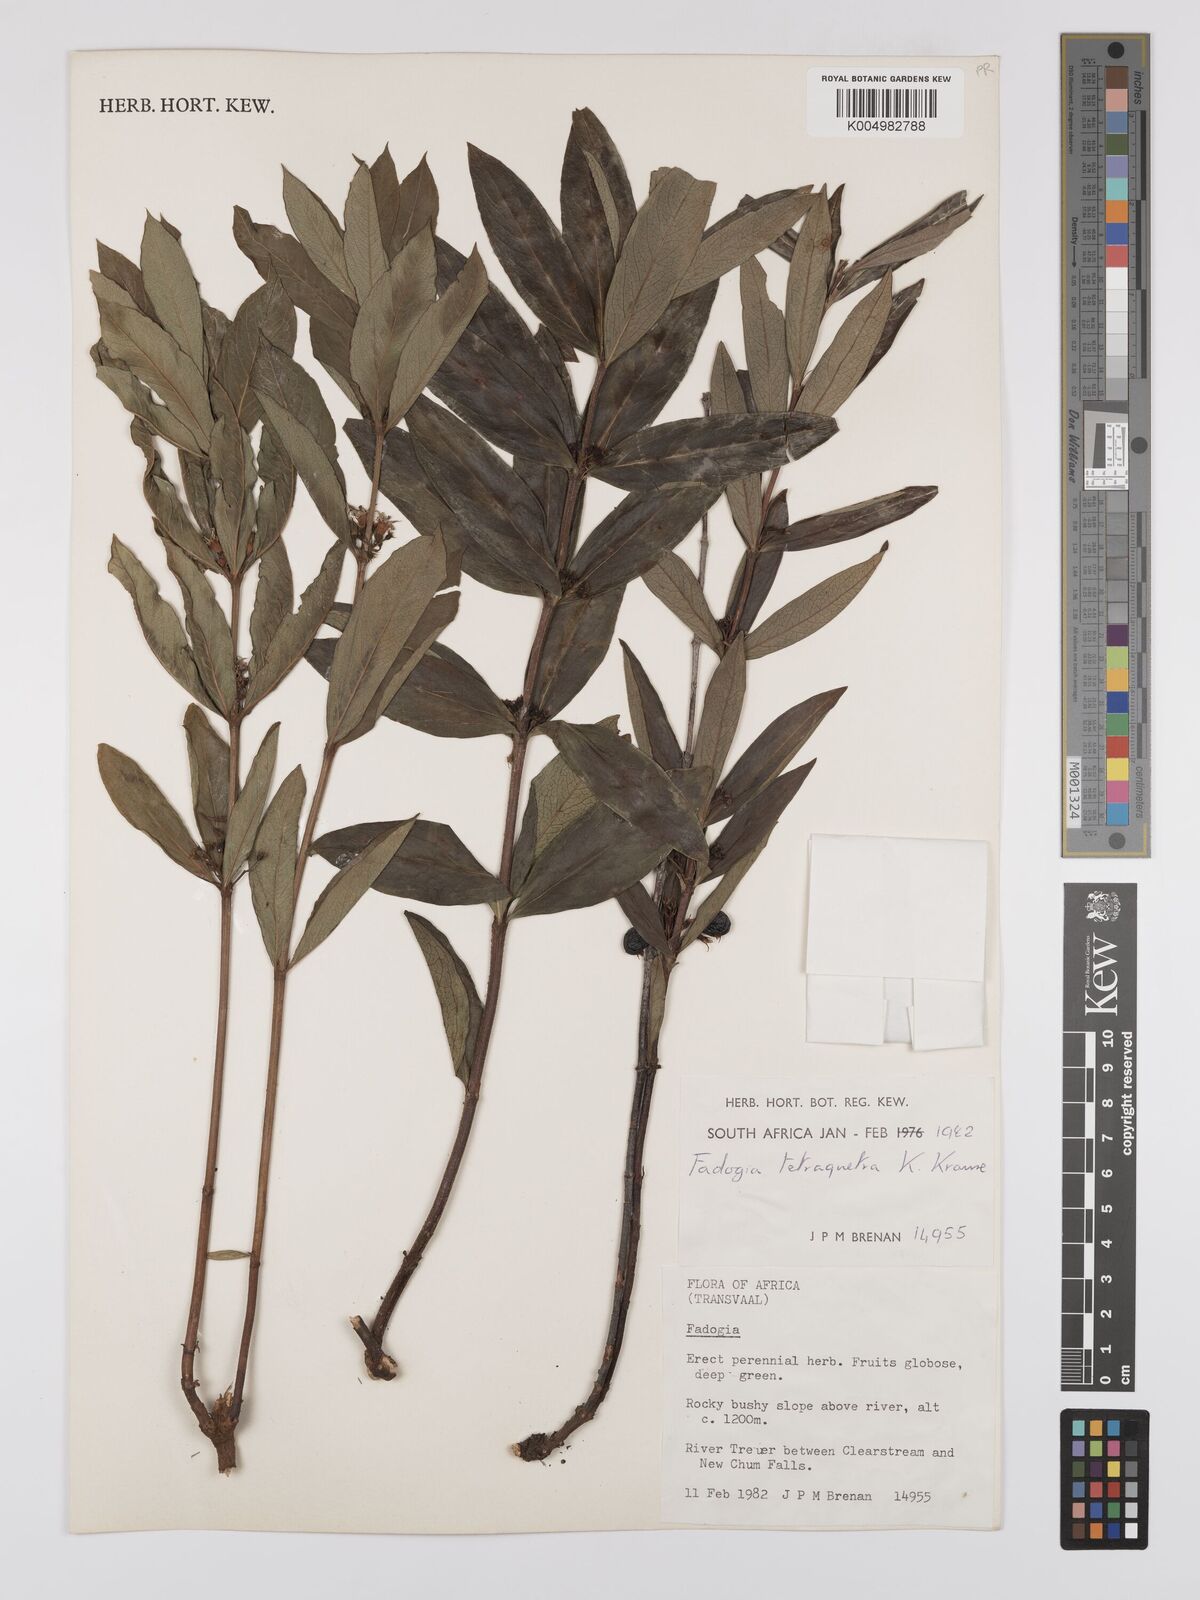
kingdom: Plantae
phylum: Tracheophyta
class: Magnoliopsida
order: Gentianales
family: Rubiaceae
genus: Fadogia
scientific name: Fadogia tetraquetra
